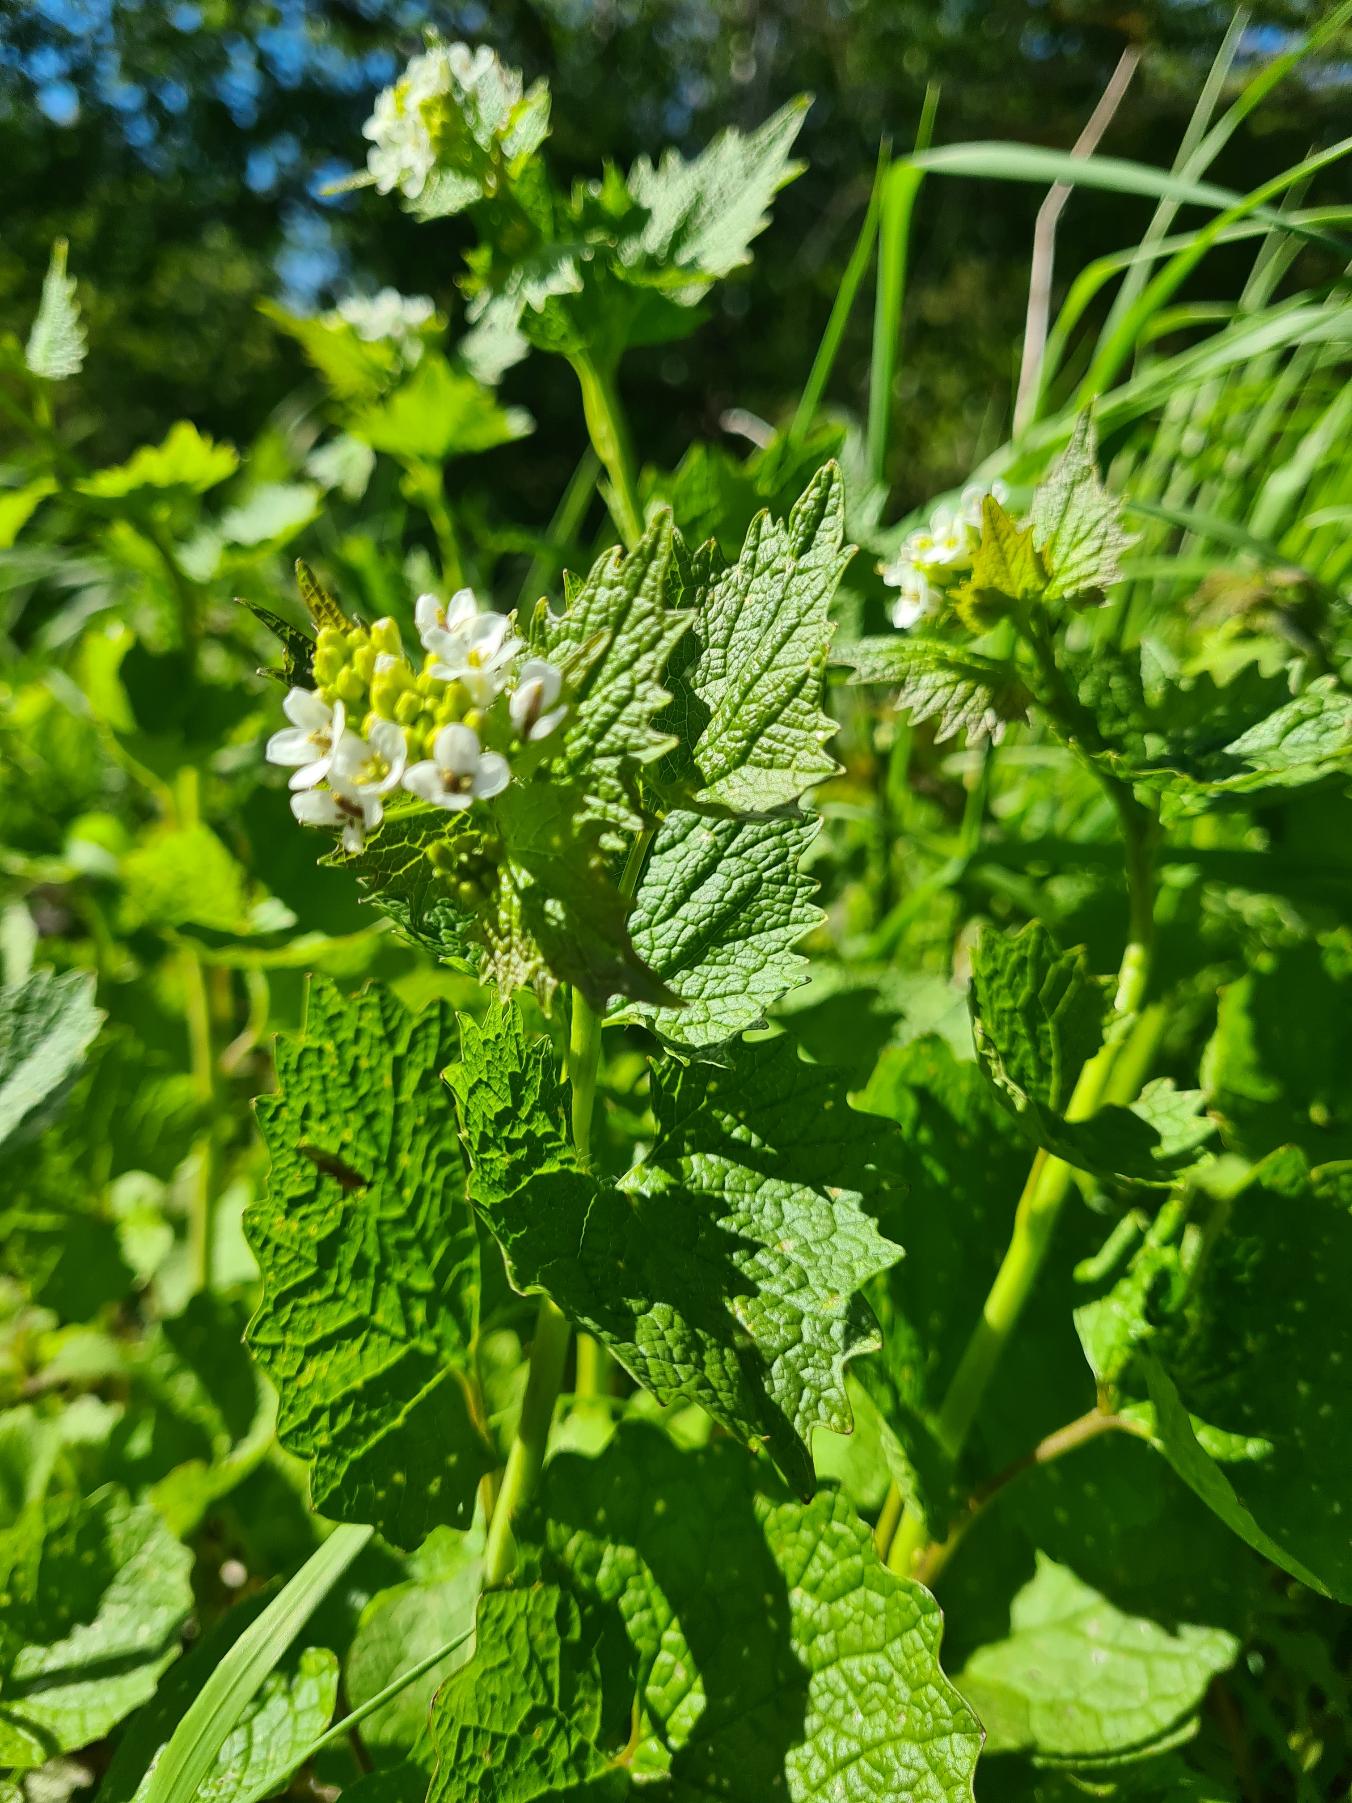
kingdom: Plantae
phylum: Tracheophyta
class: Magnoliopsida
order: Brassicales
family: Brassicaceae
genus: Alliaria
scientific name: Alliaria petiolata
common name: Løgkarse
